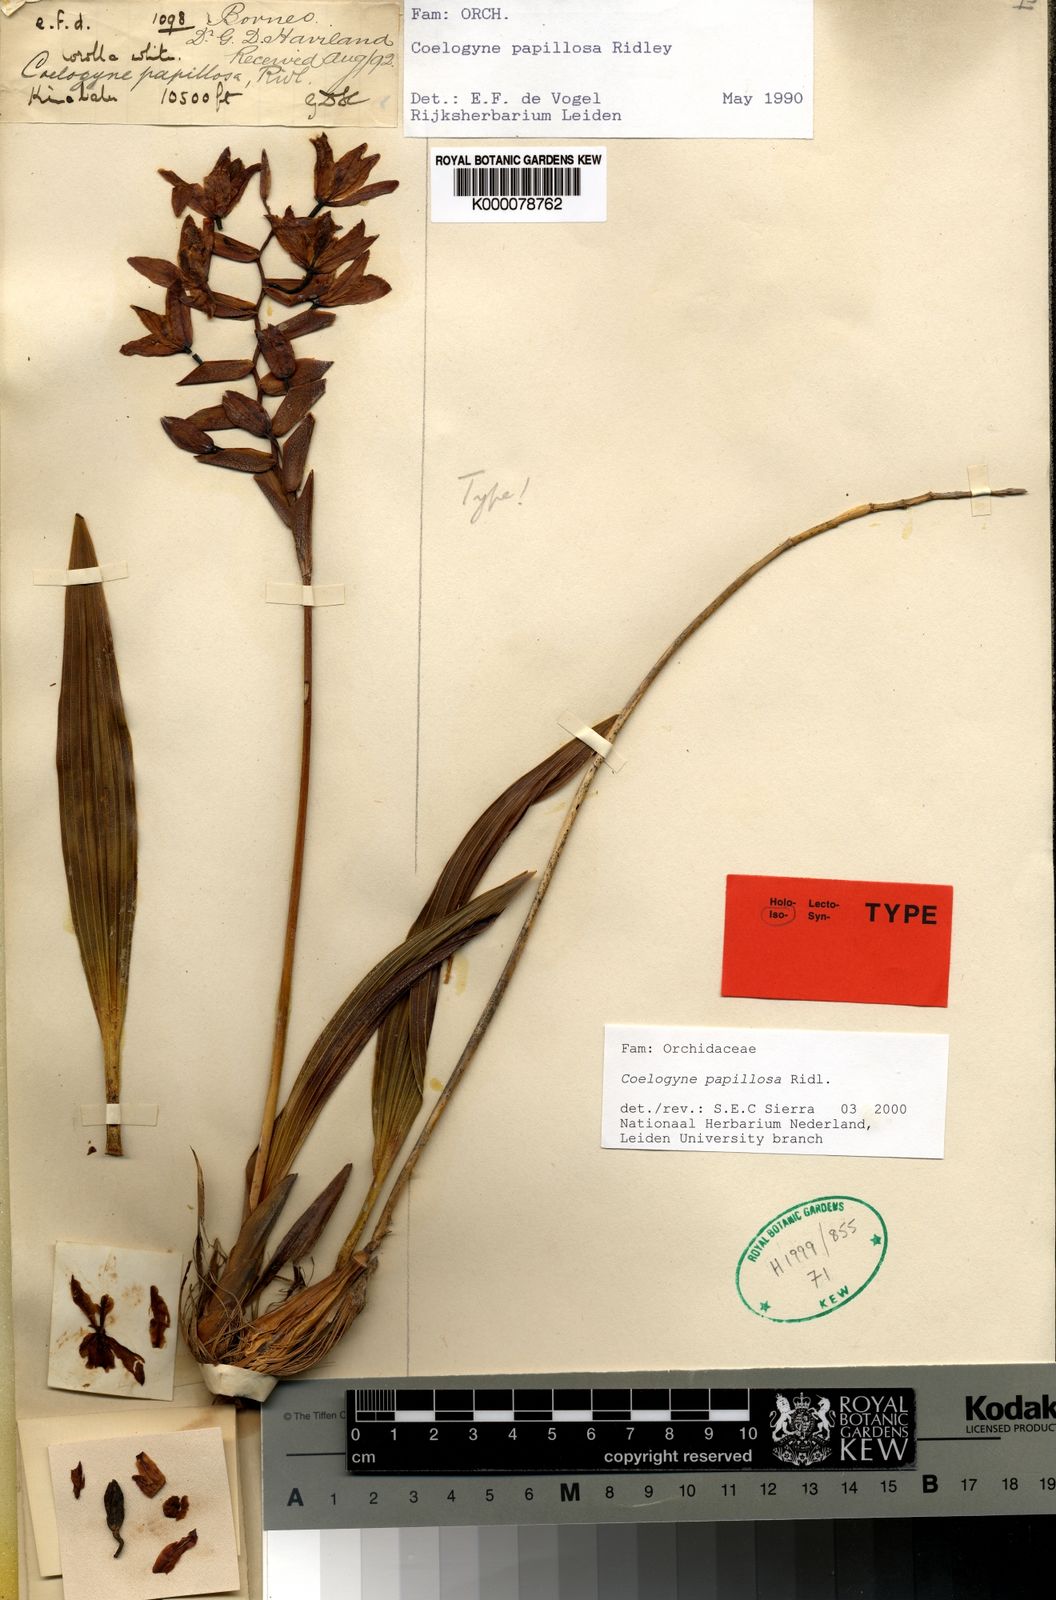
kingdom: Plantae
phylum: Tracheophyta
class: Liliopsida
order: Asparagales
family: Orchidaceae
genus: Coelogyne
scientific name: Coelogyne papillosa
